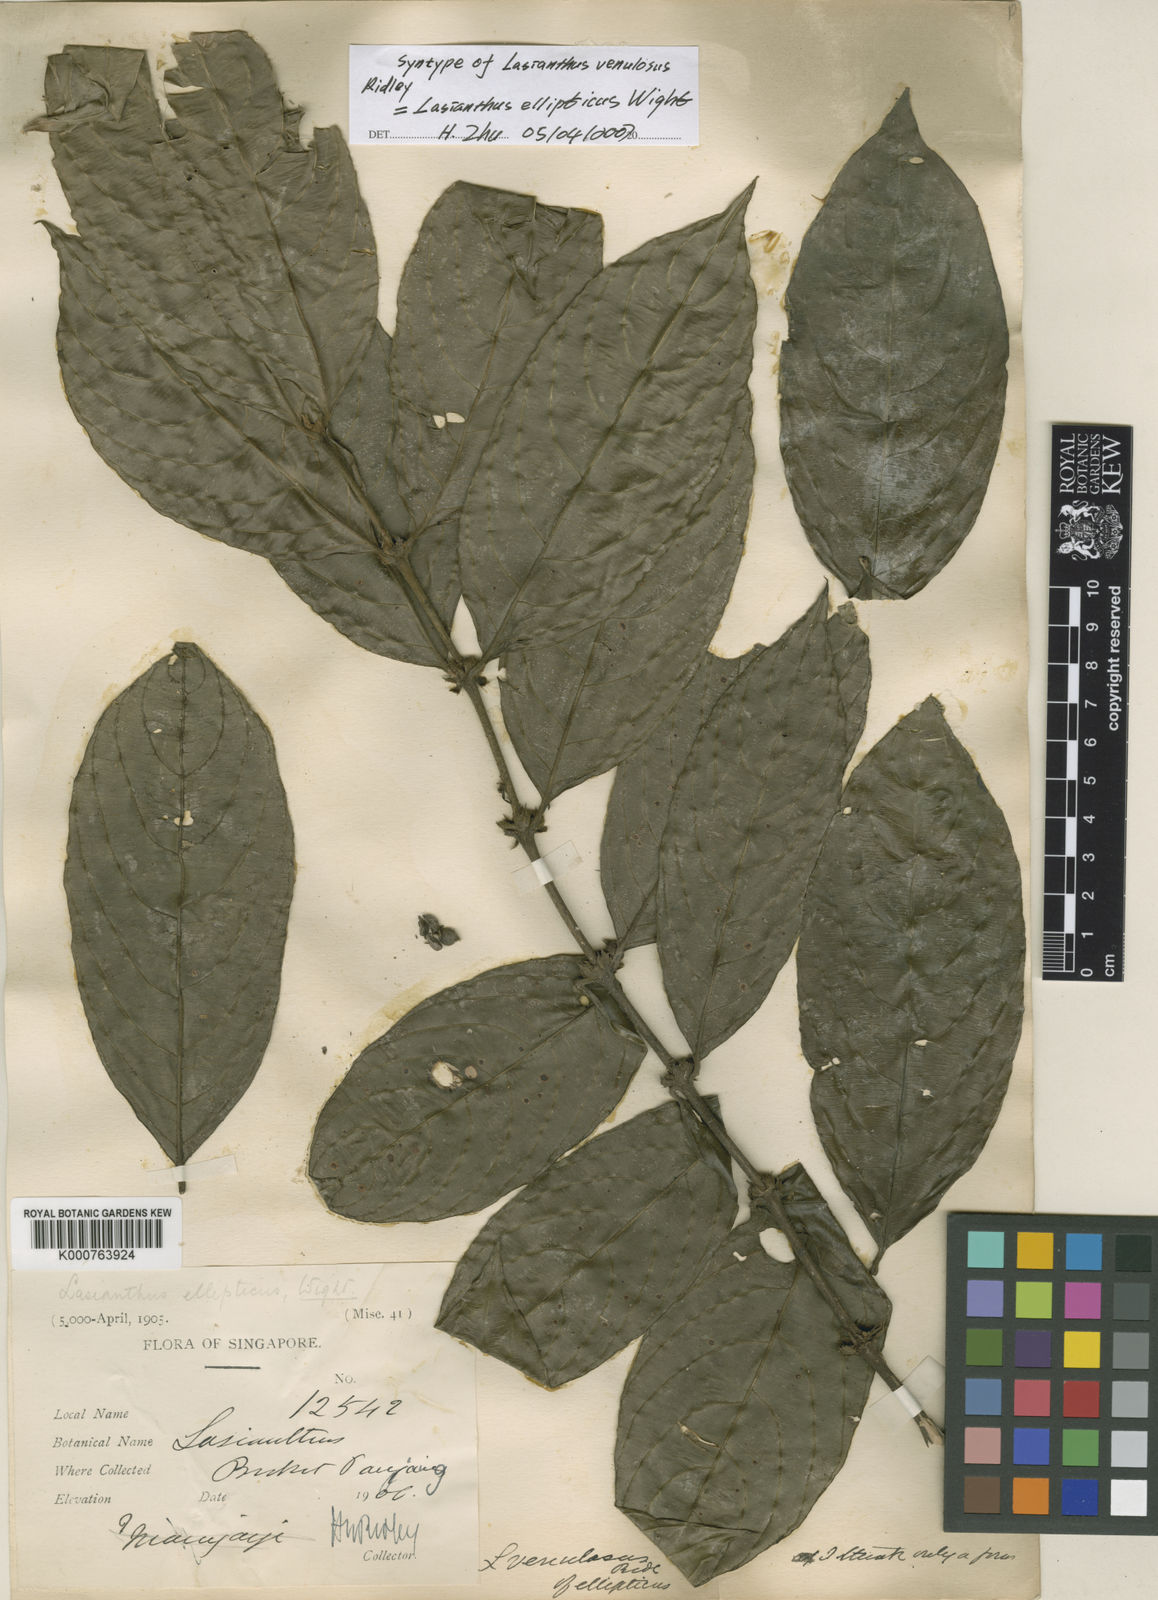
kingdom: Plantae
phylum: Tracheophyta
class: Magnoliopsida
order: Gentianales
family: Rubiaceae
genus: Lasianthus
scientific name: Lasianthus ellipticus
